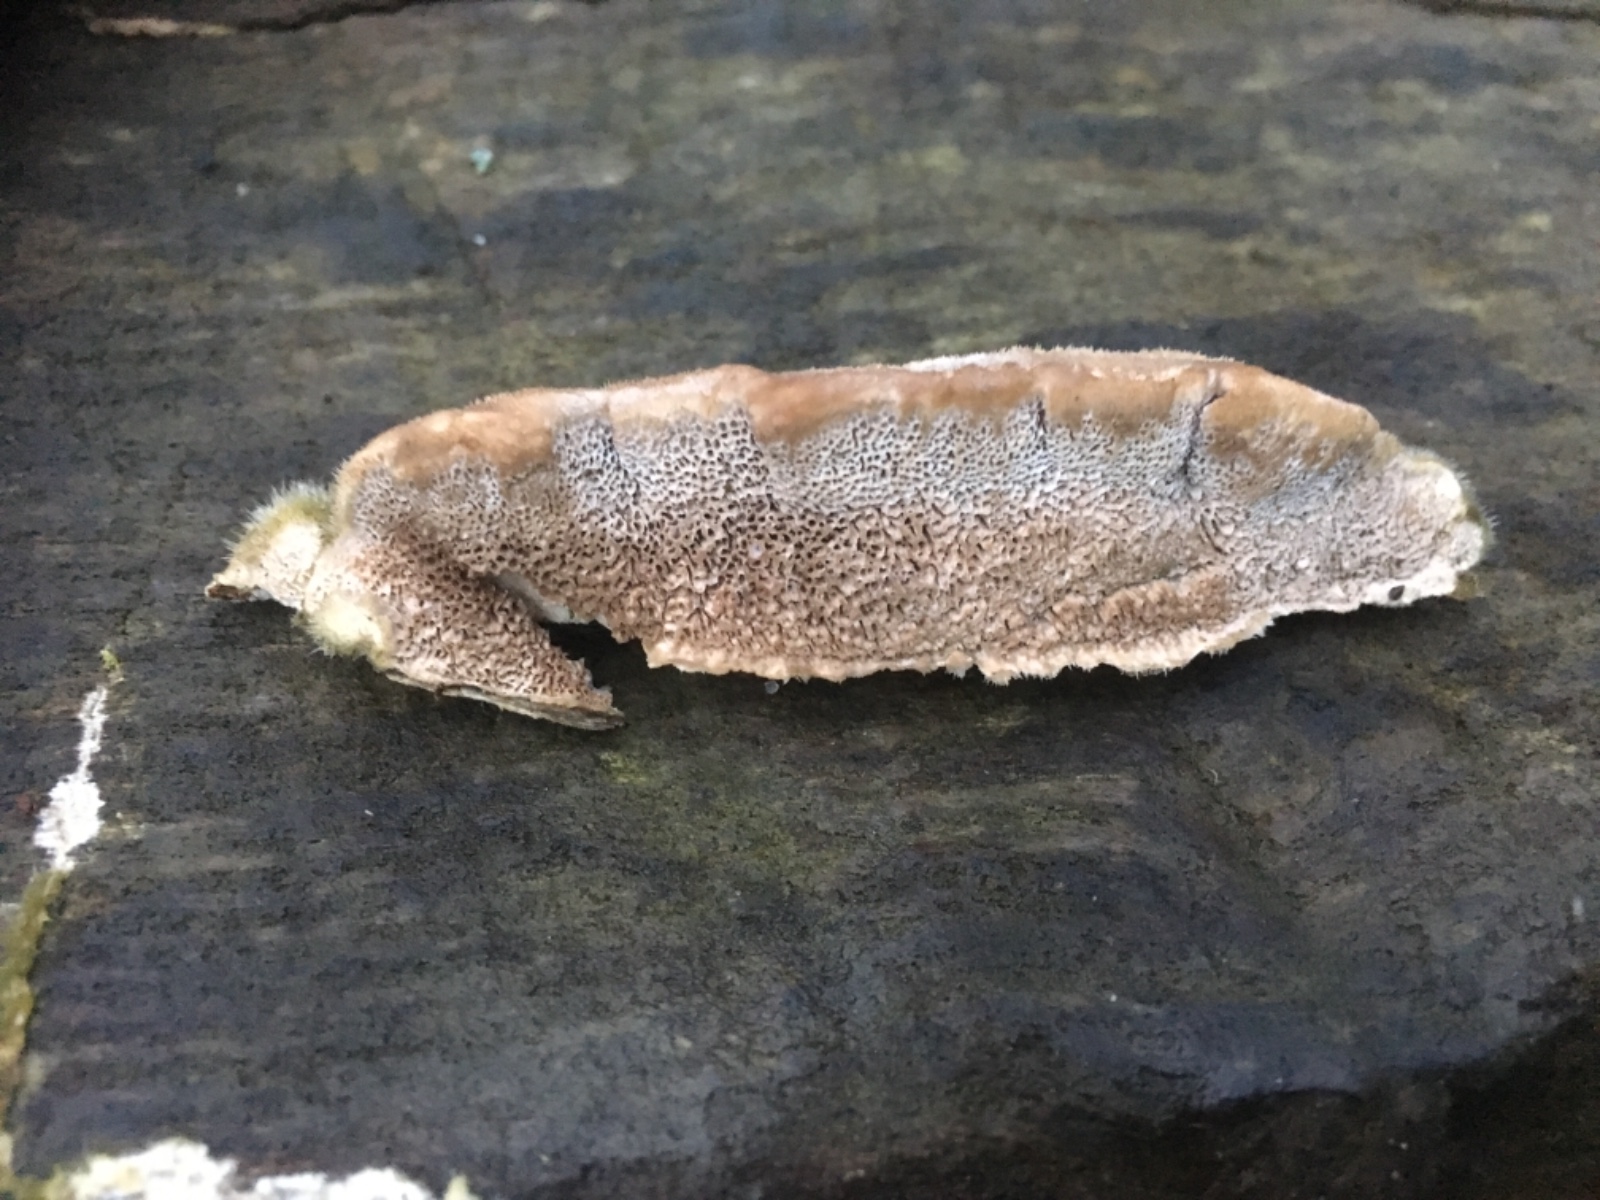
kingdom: Fungi
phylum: Basidiomycota
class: Agaricomycetes
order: Polyporales
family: Polyporaceae
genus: Trametes
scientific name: Trametes hirsuta
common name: håret læderporesvamp
